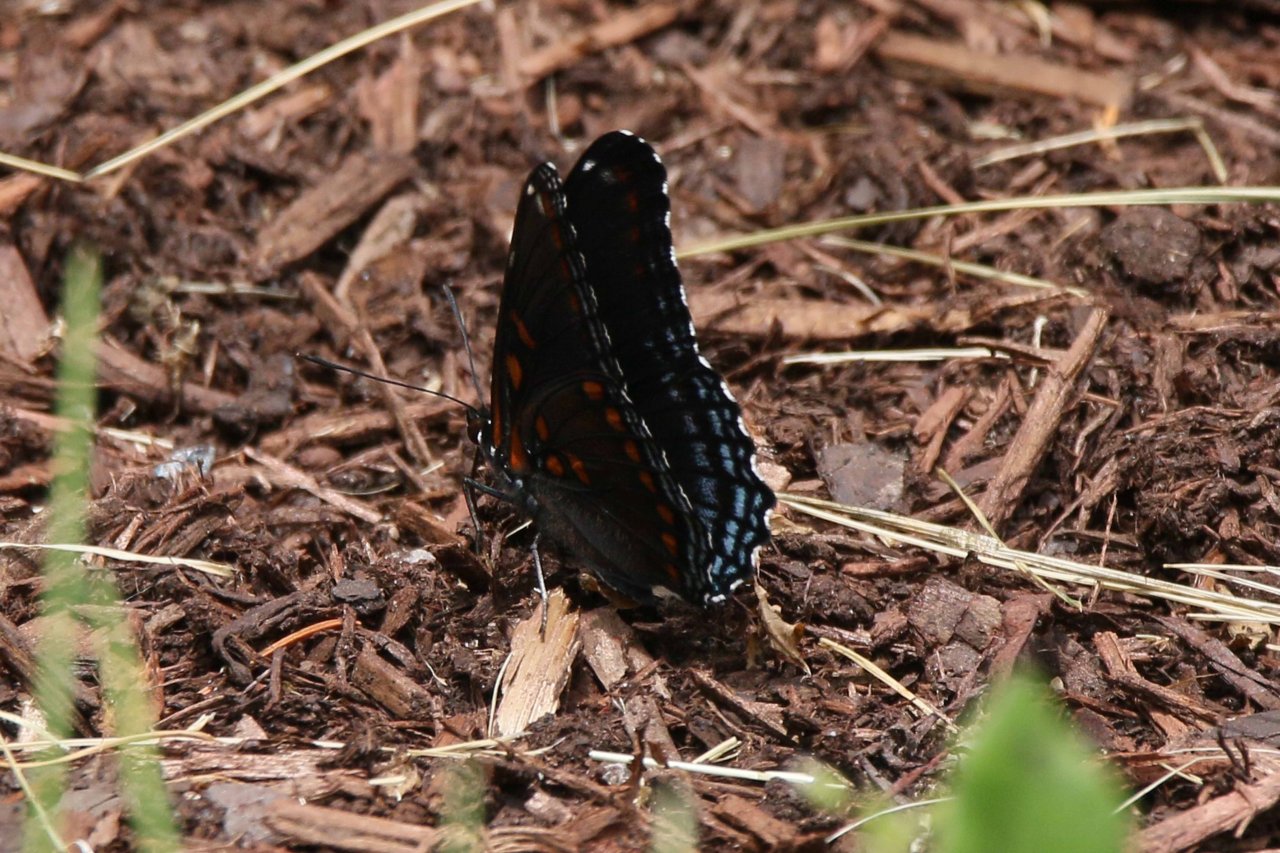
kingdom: Animalia
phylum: Arthropoda
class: Insecta
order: Lepidoptera
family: Nymphalidae
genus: Limenitis
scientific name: Limenitis astyanax
